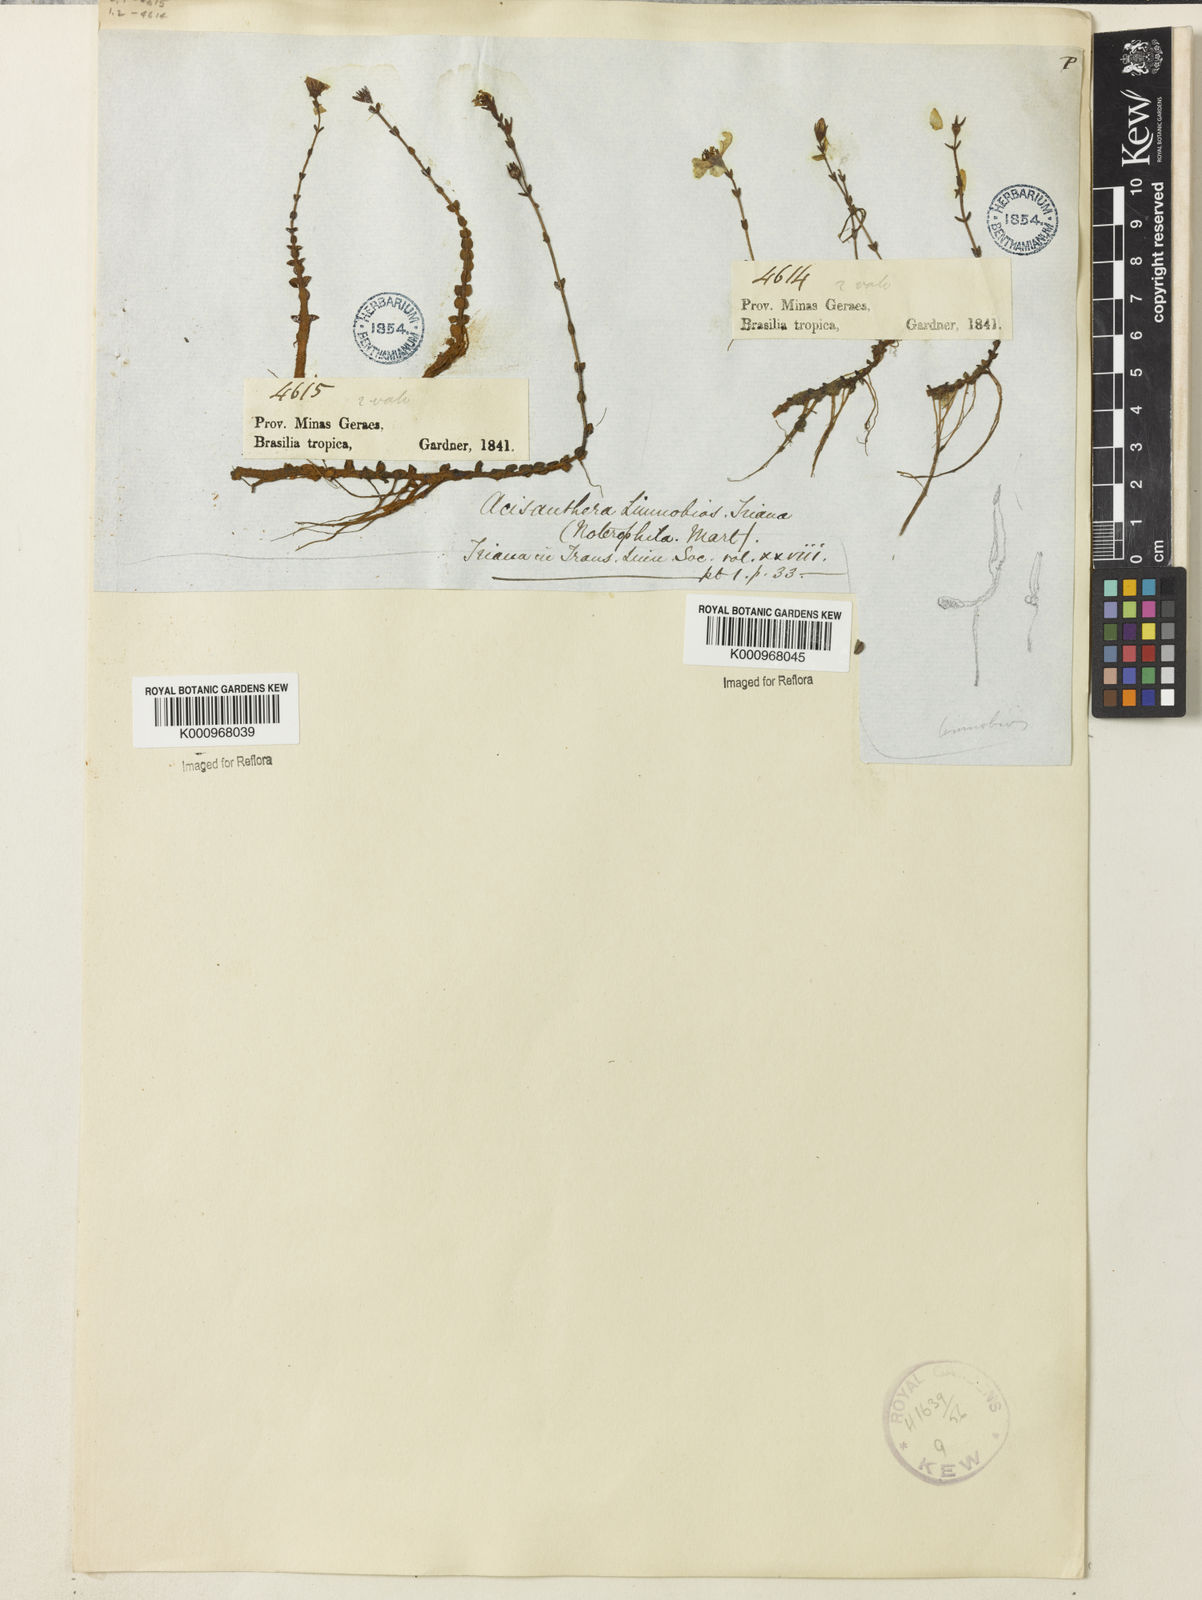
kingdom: Plantae
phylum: Tracheophyta
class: Magnoliopsida
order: Myrtales
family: Melastomataceae
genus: Acisanthera
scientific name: Acisanthera
